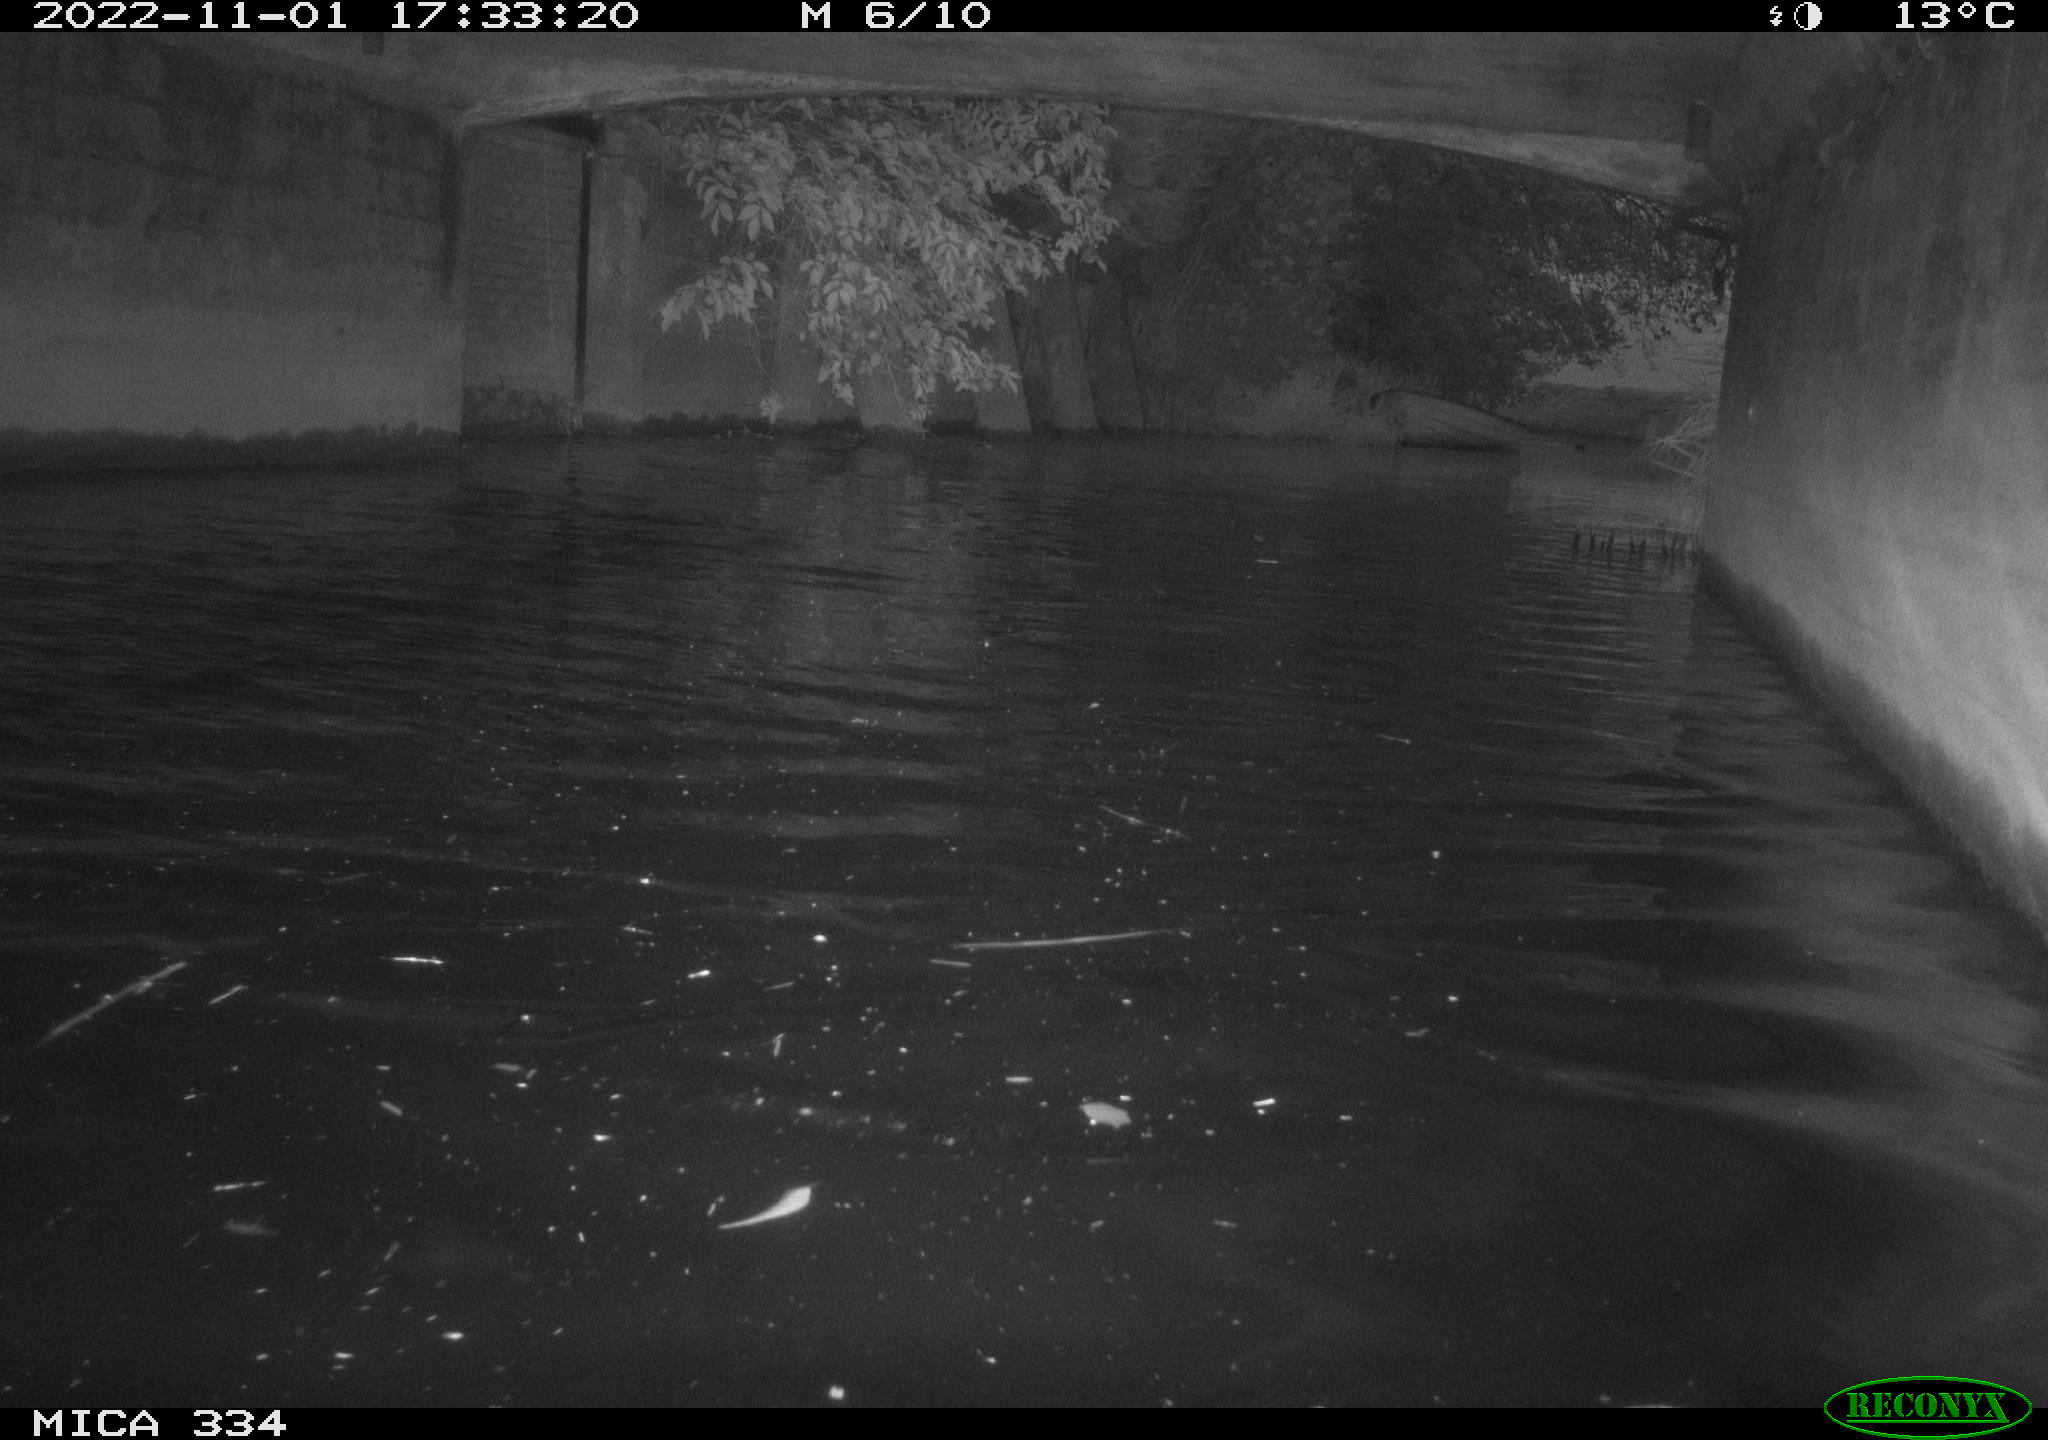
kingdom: Animalia
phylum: Chordata
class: Aves
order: Gruiformes
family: Rallidae
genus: Gallinula
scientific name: Gallinula chloropus
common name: Common moorhen
